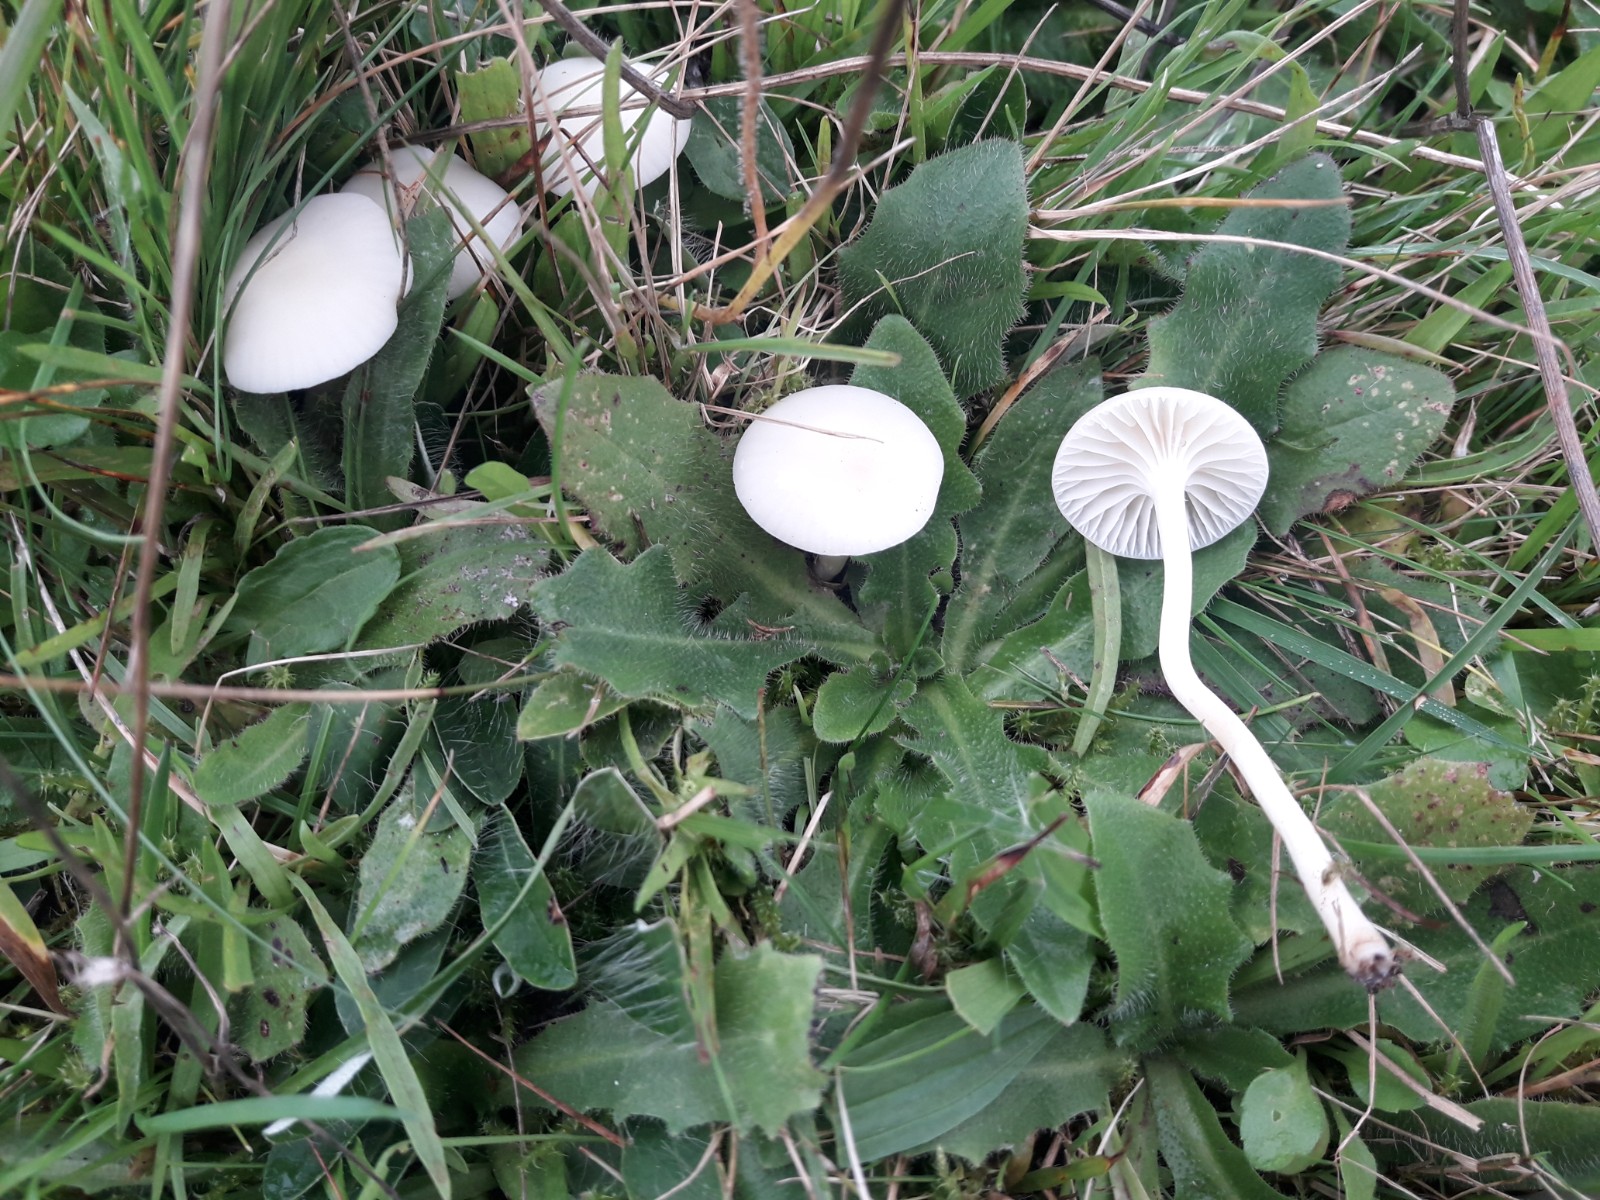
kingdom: Fungi
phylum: Basidiomycota
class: Agaricomycetes
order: Agaricales
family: Hygrophoraceae
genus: Cuphophyllus
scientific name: Cuphophyllus virgineus
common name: snehvid vokshat
